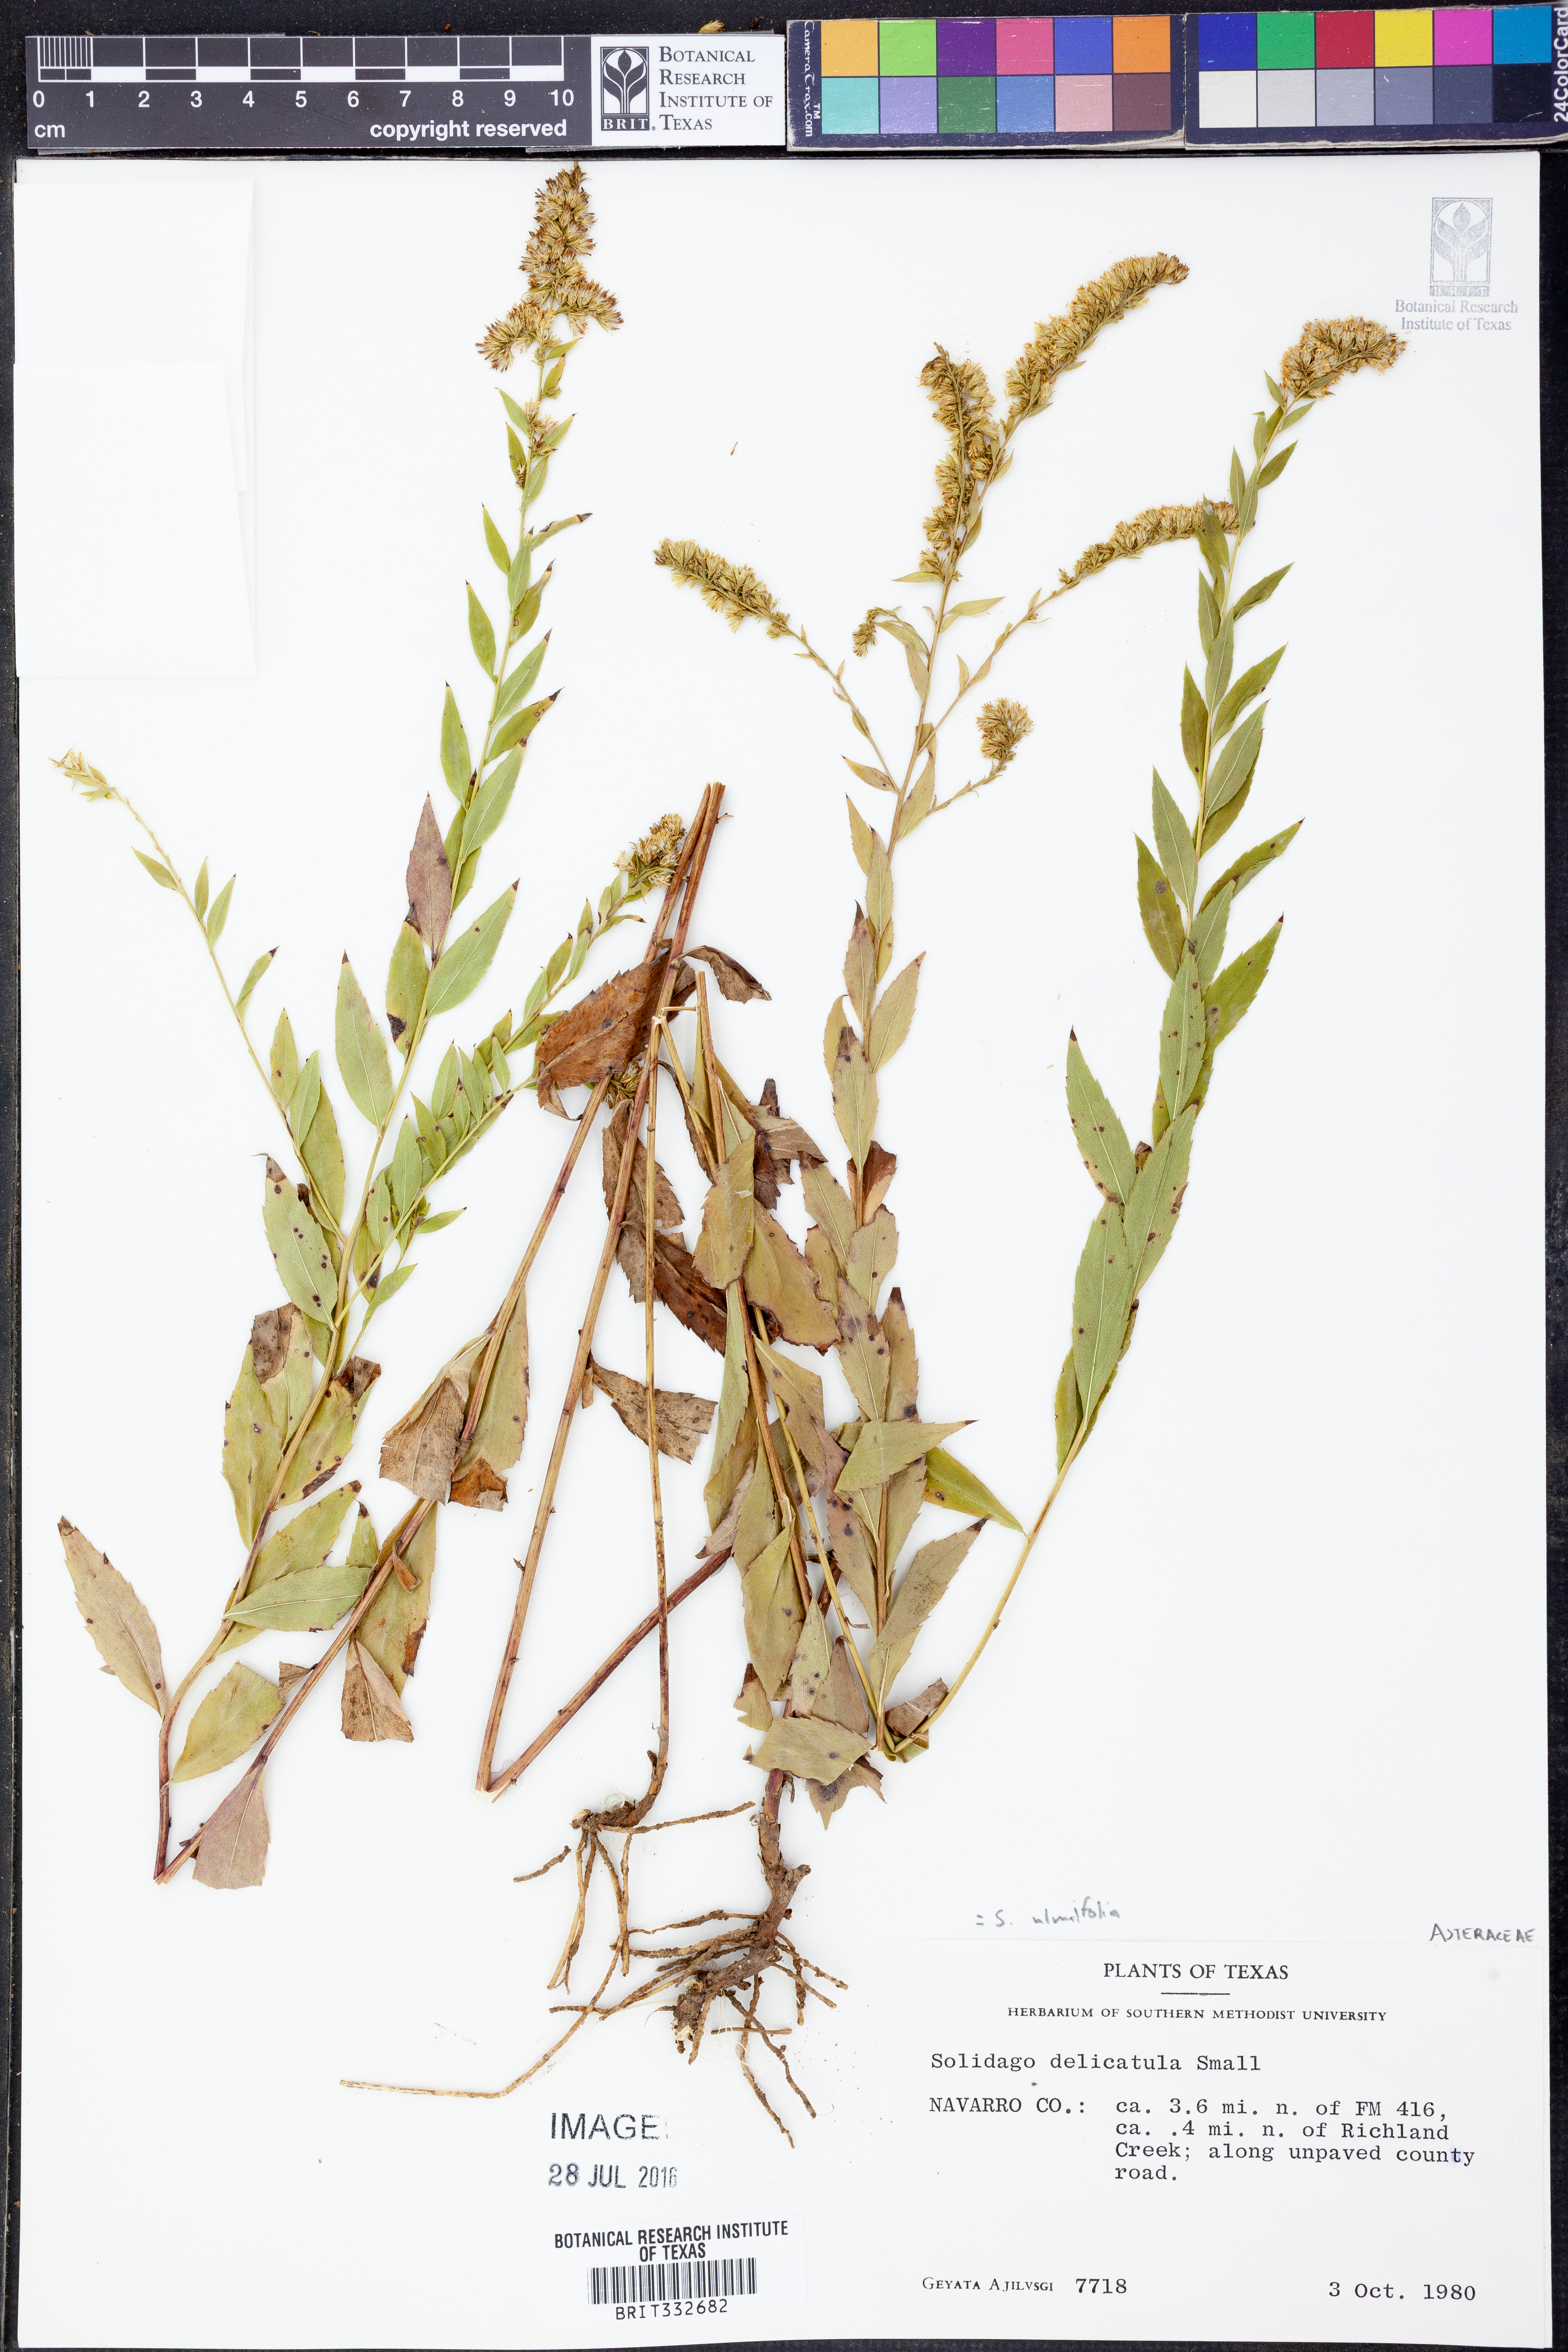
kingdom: Plantae
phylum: Tracheophyta
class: Magnoliopsida
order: Asterales
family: Asteraceae
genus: Solidago
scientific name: Solidago ulmifolia
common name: Elm-leaf goldenrod
